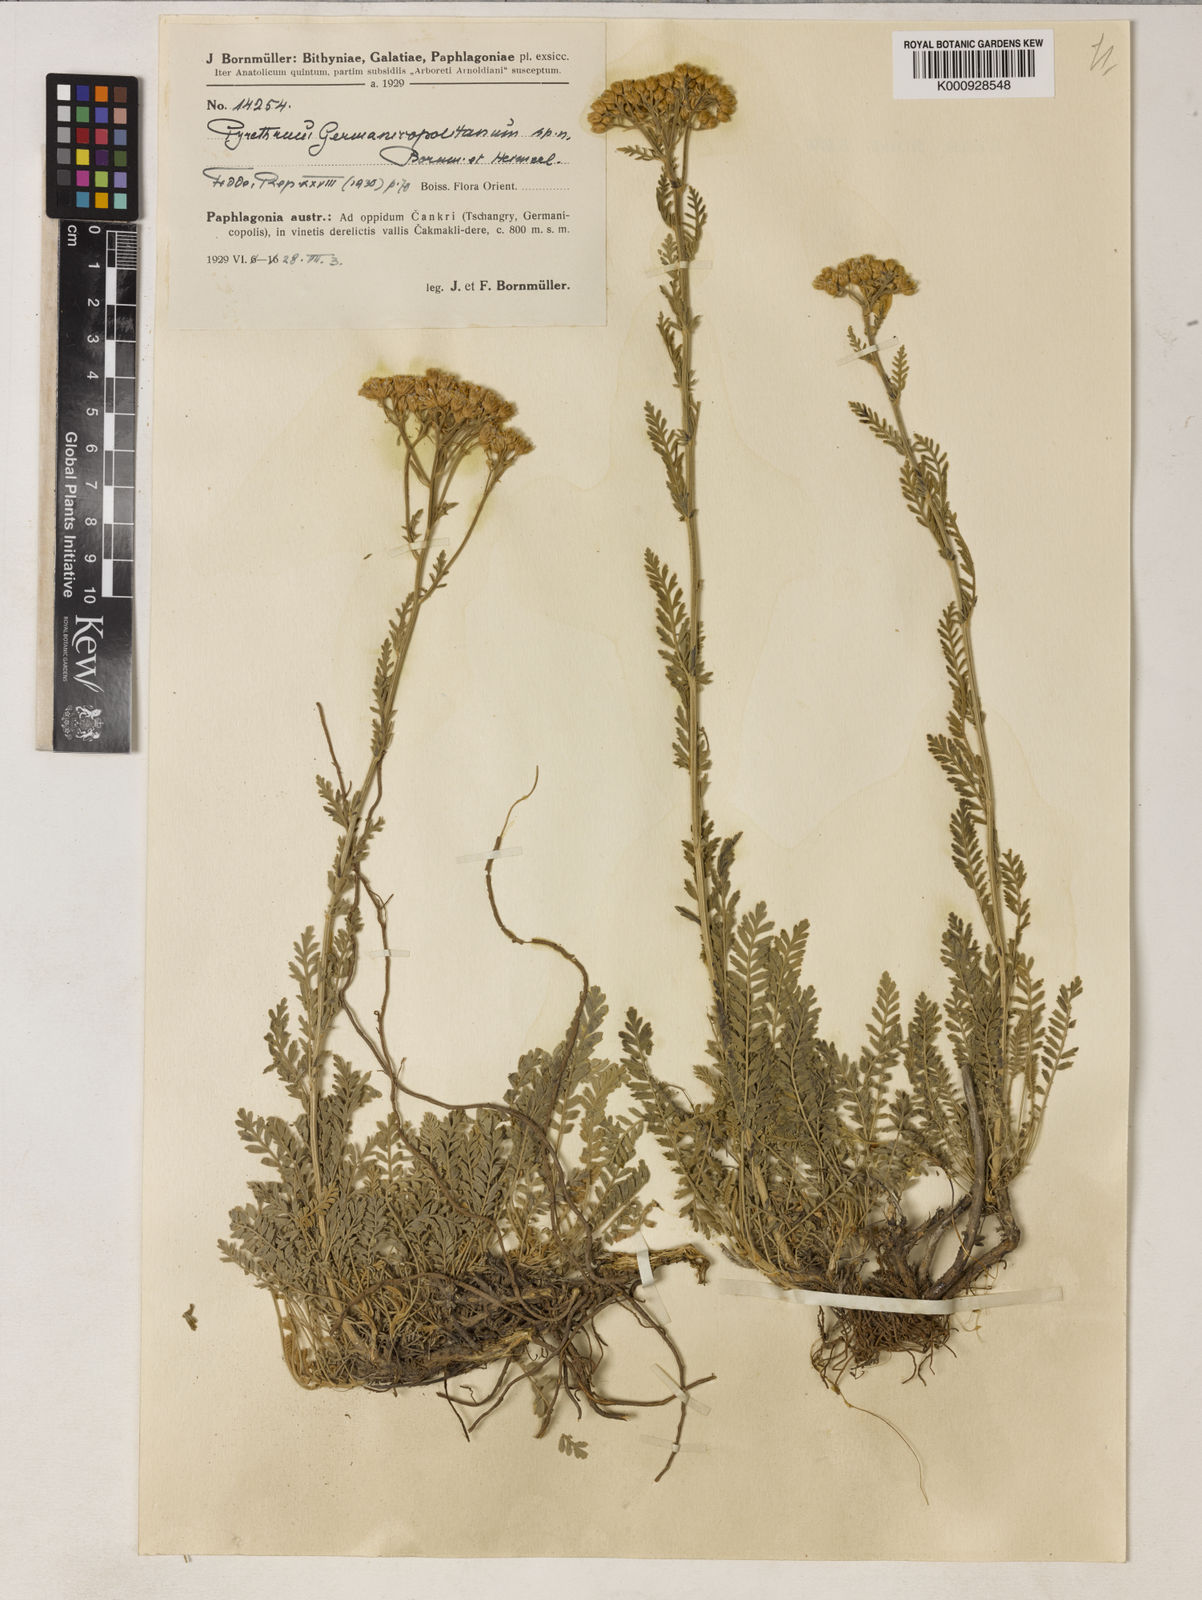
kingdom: Plantae
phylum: Tracheophyta
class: Magnoliopsida
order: Asterales
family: Asteraceae
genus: Tanacetum
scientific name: Tanacetum germanicopolitanum
